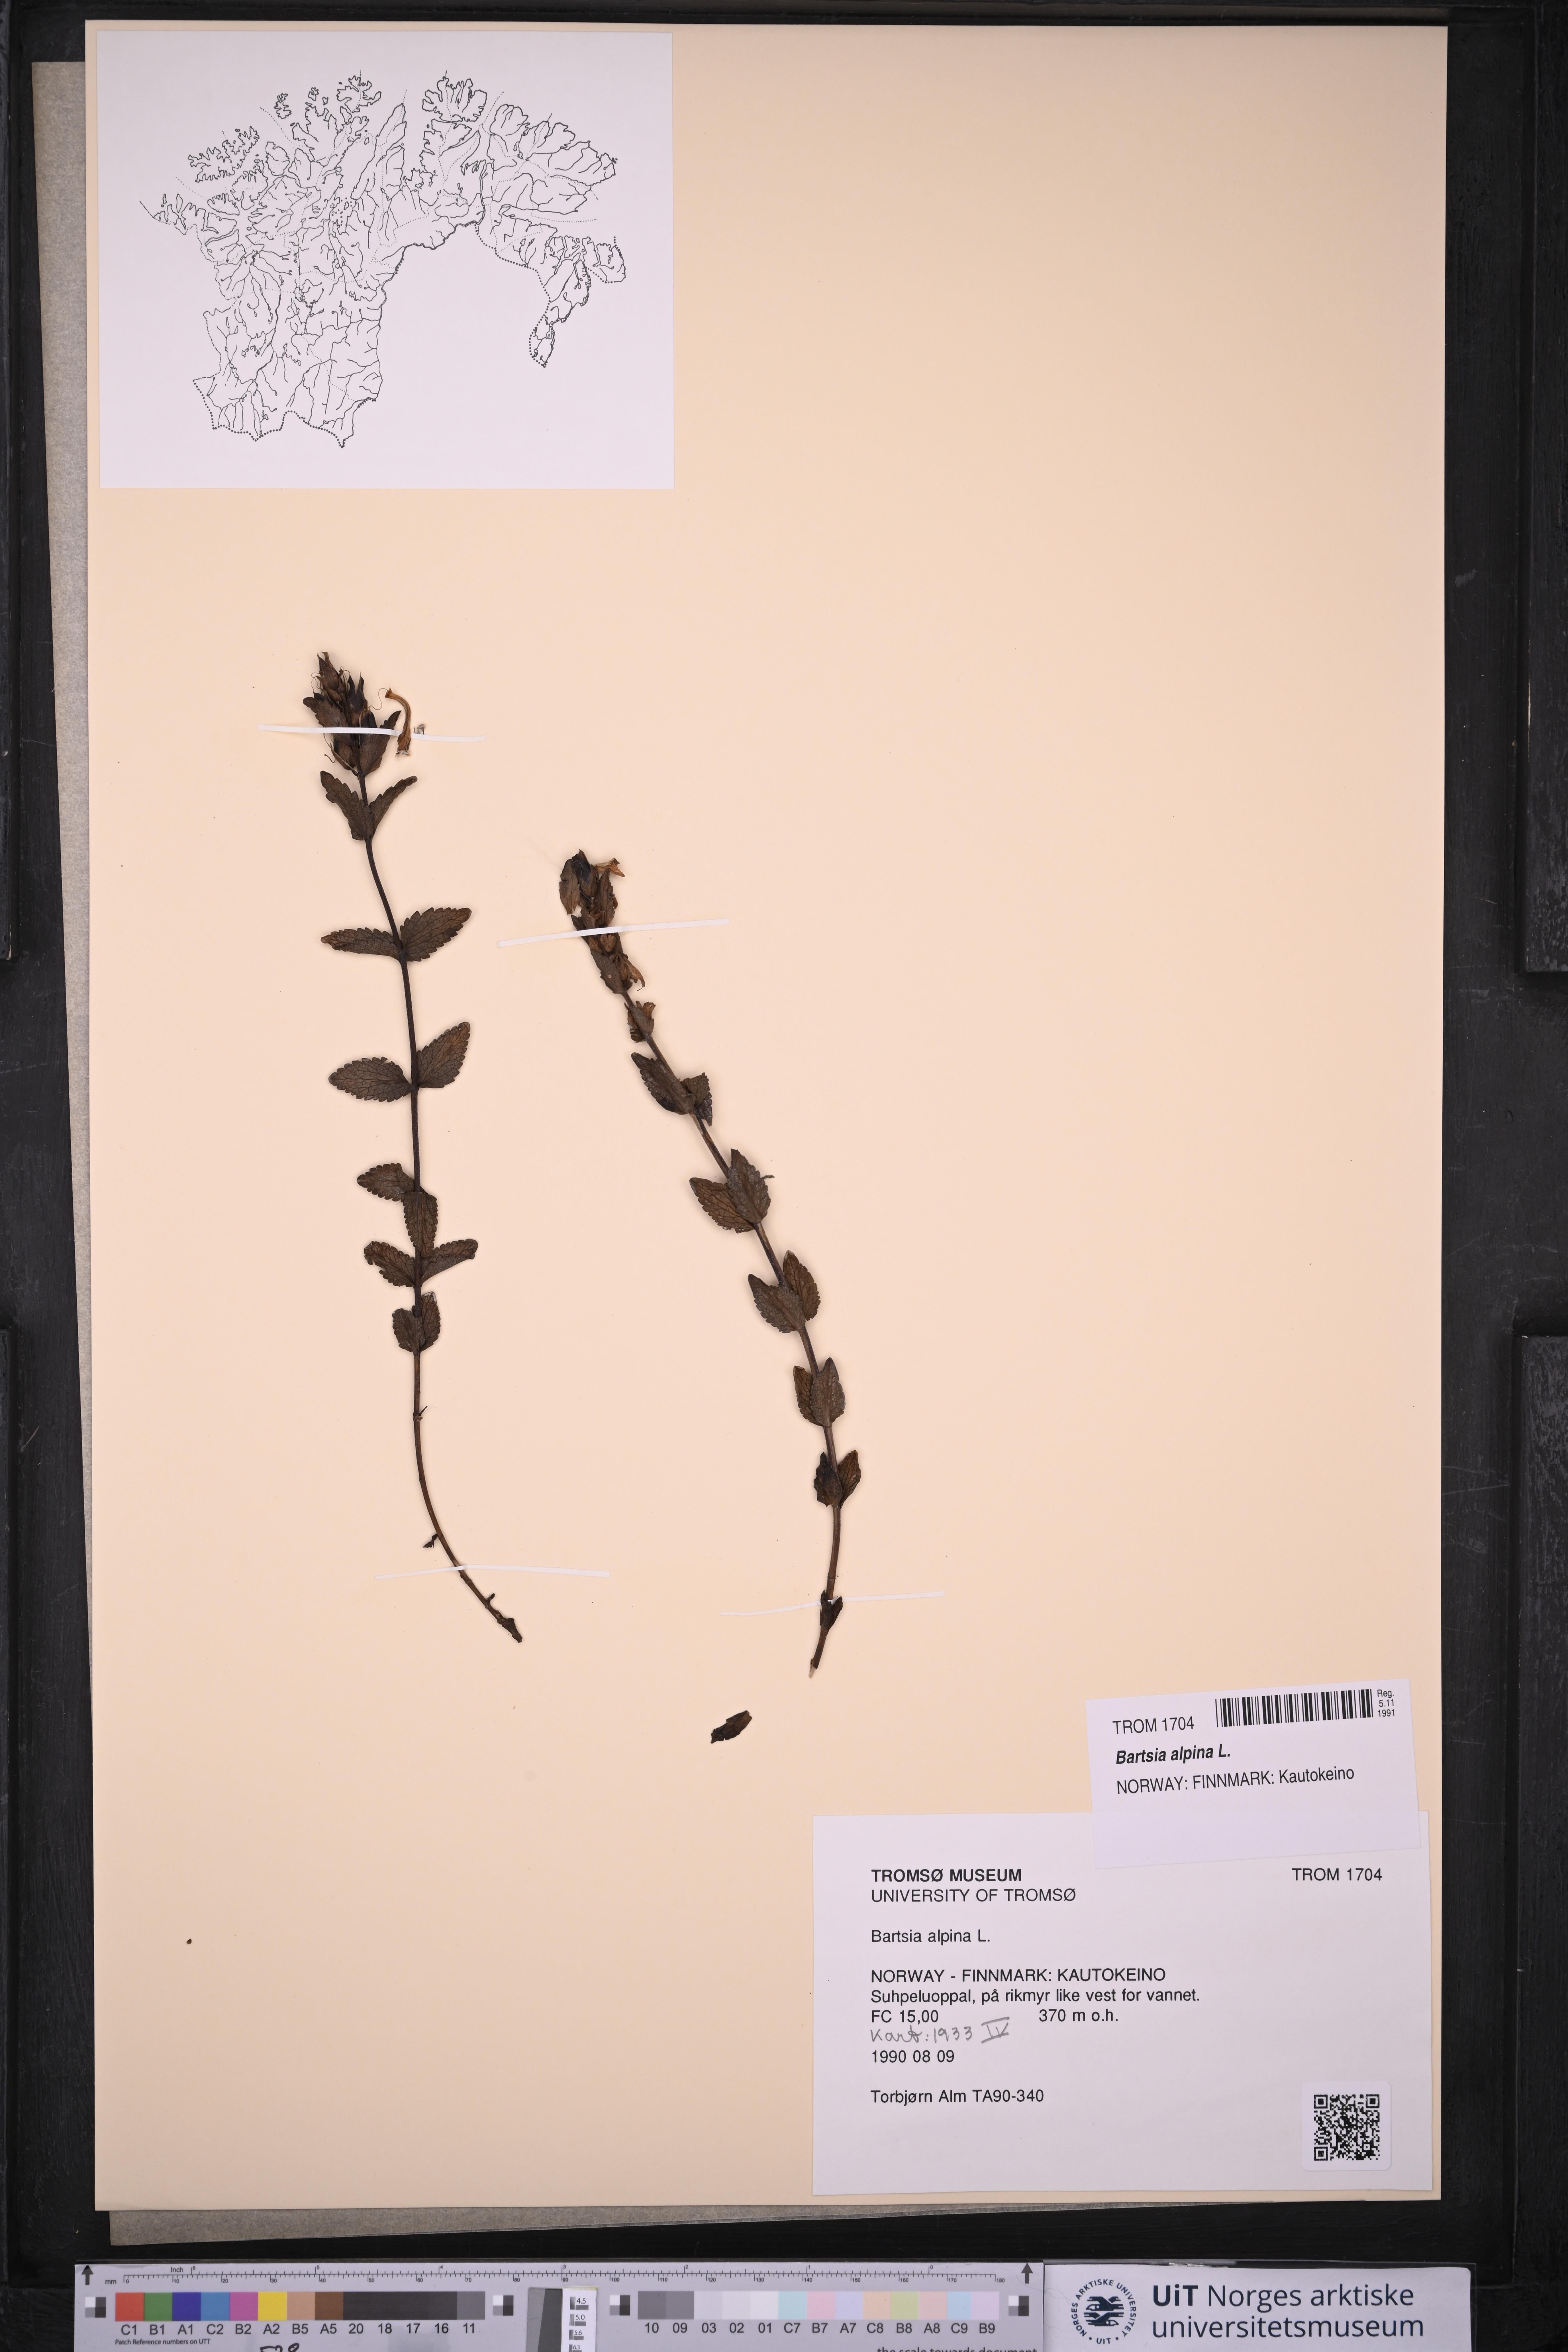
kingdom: Plantae
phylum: Tracheophyta
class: Magnoliopsida
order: Lamiales
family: Orobanchaceae
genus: Bartsia
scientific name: Bartsia alpina
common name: Alpine bartsia
